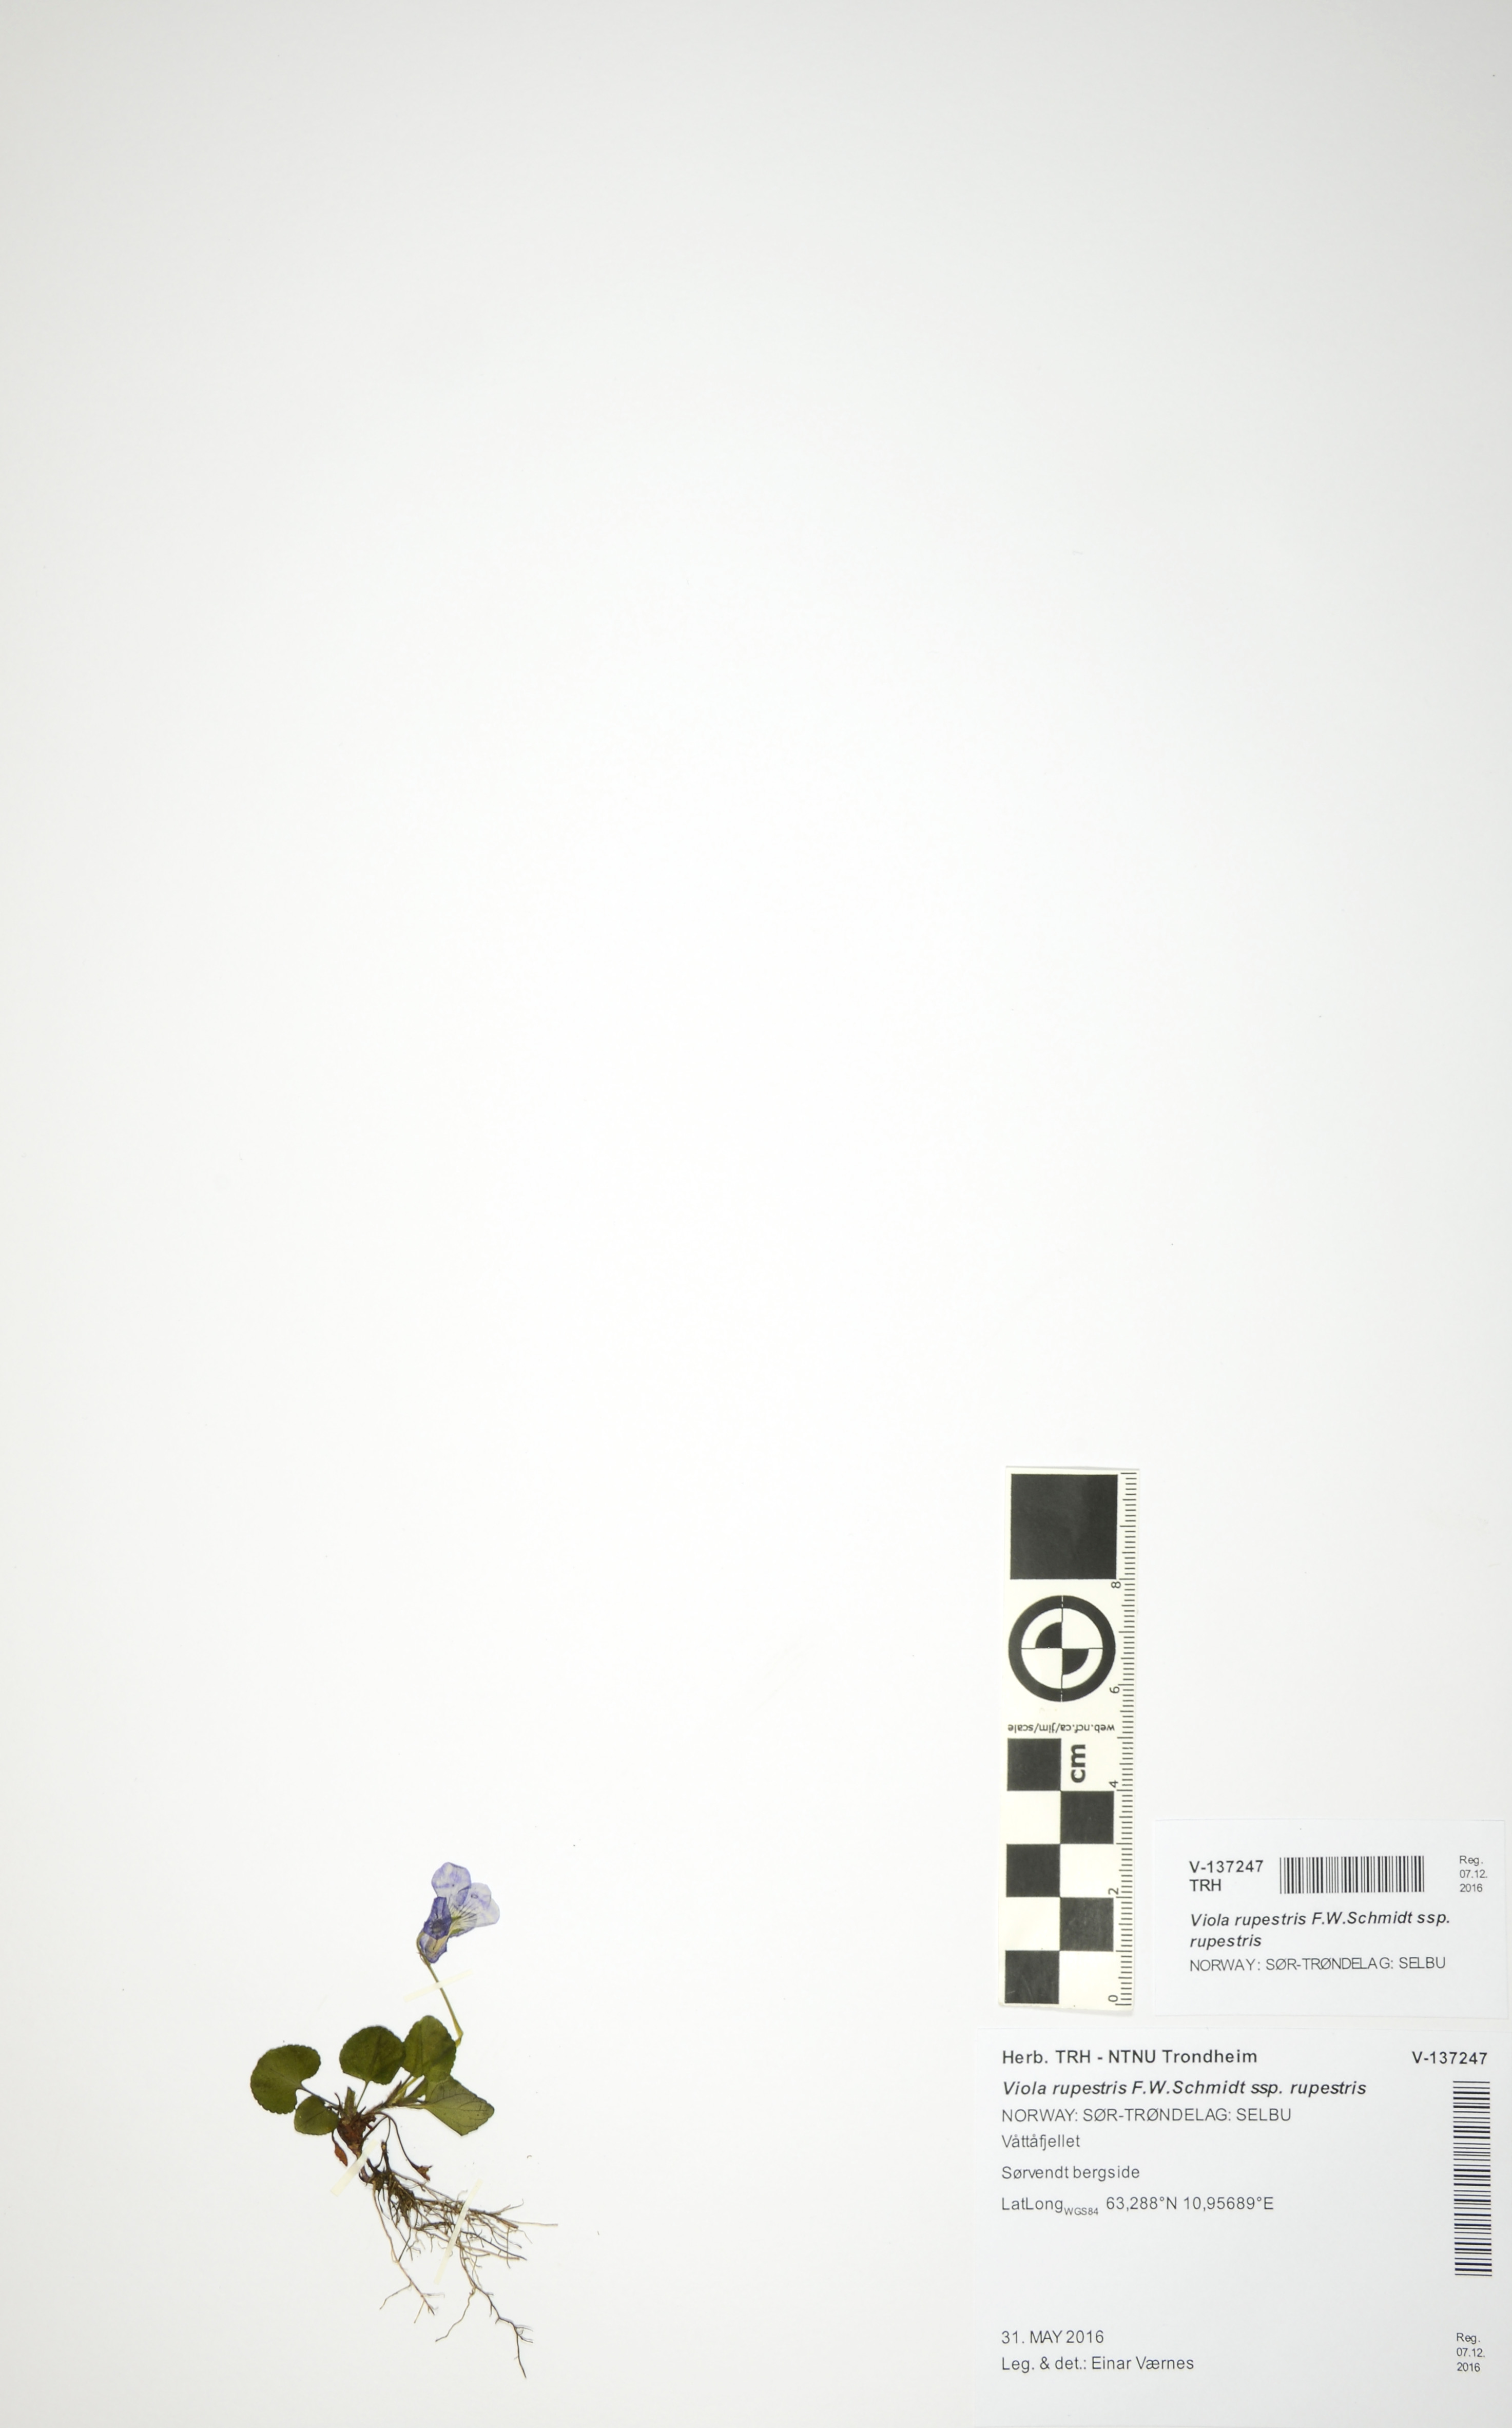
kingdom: Plantae
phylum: Tracheophyta
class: Magnoliopsida
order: Malpighiales
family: Violaceae
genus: Viola
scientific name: Viola rupestris
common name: Teesdale violet
